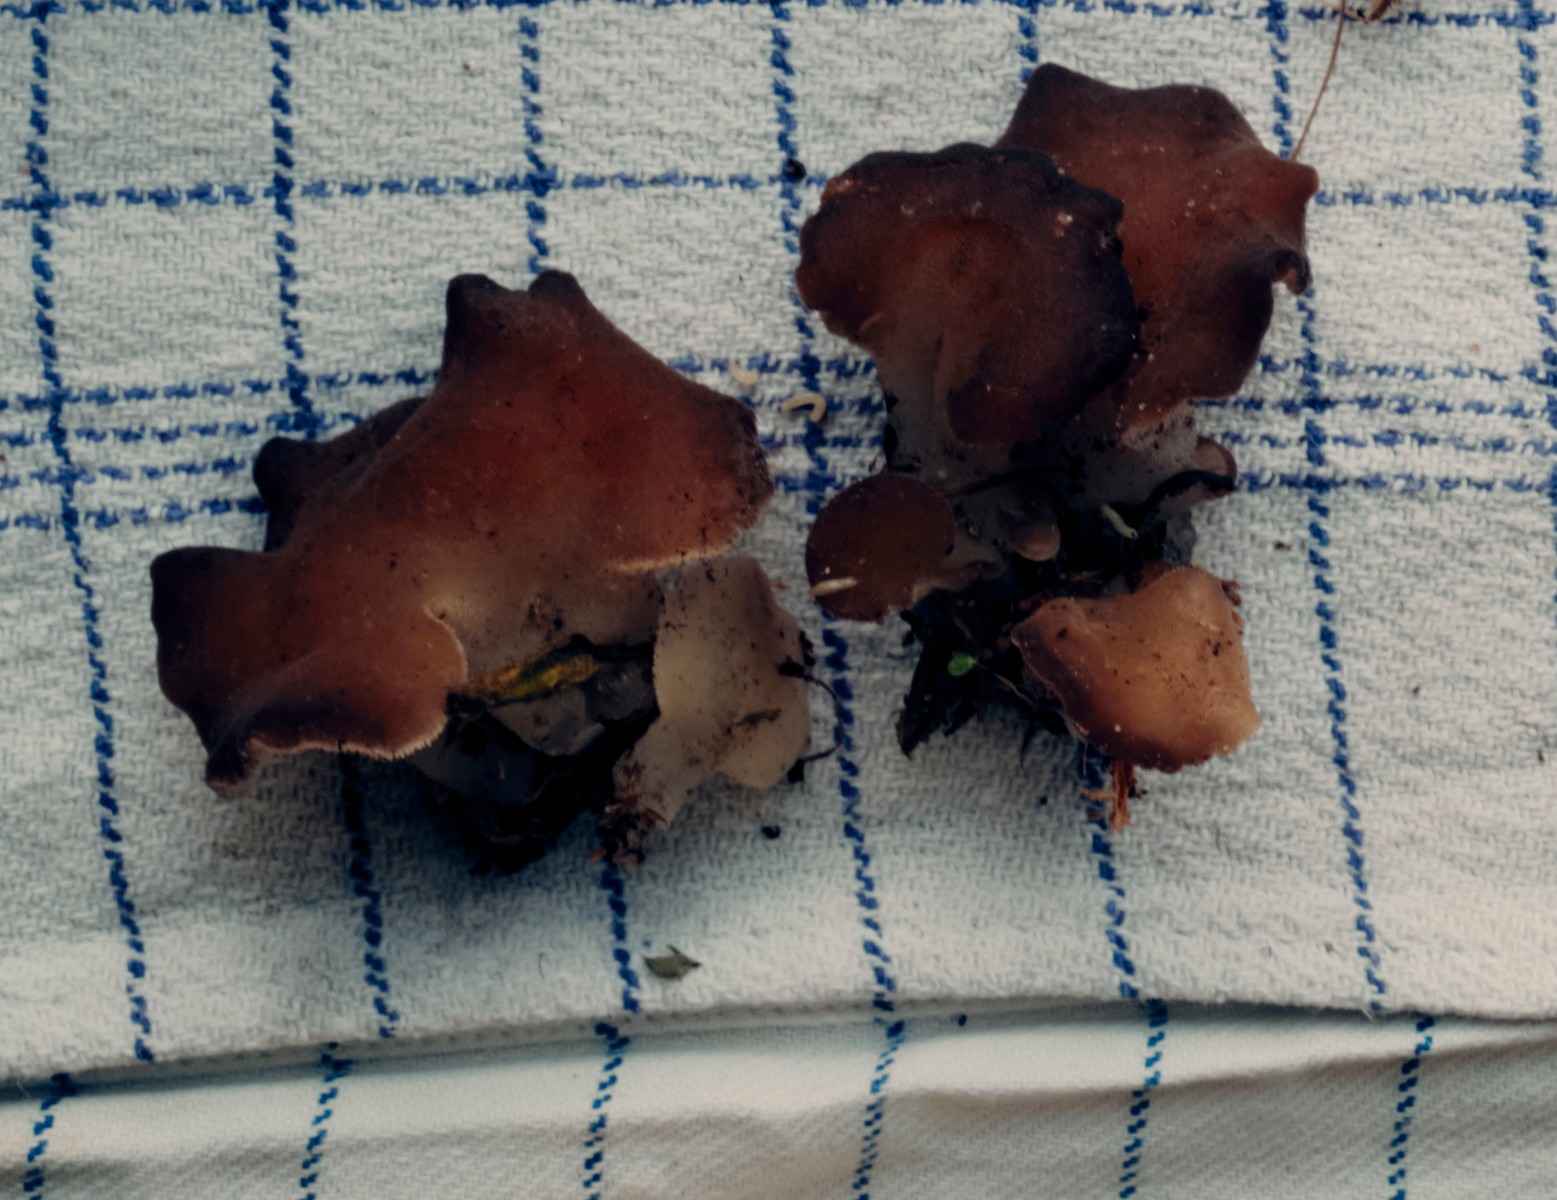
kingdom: Fungi
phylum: Basidiomycota
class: Agaricomycetes
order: Auriculariales
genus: Pseudohydnum
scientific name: Pseudohydnum gelatinosum
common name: bævretand
